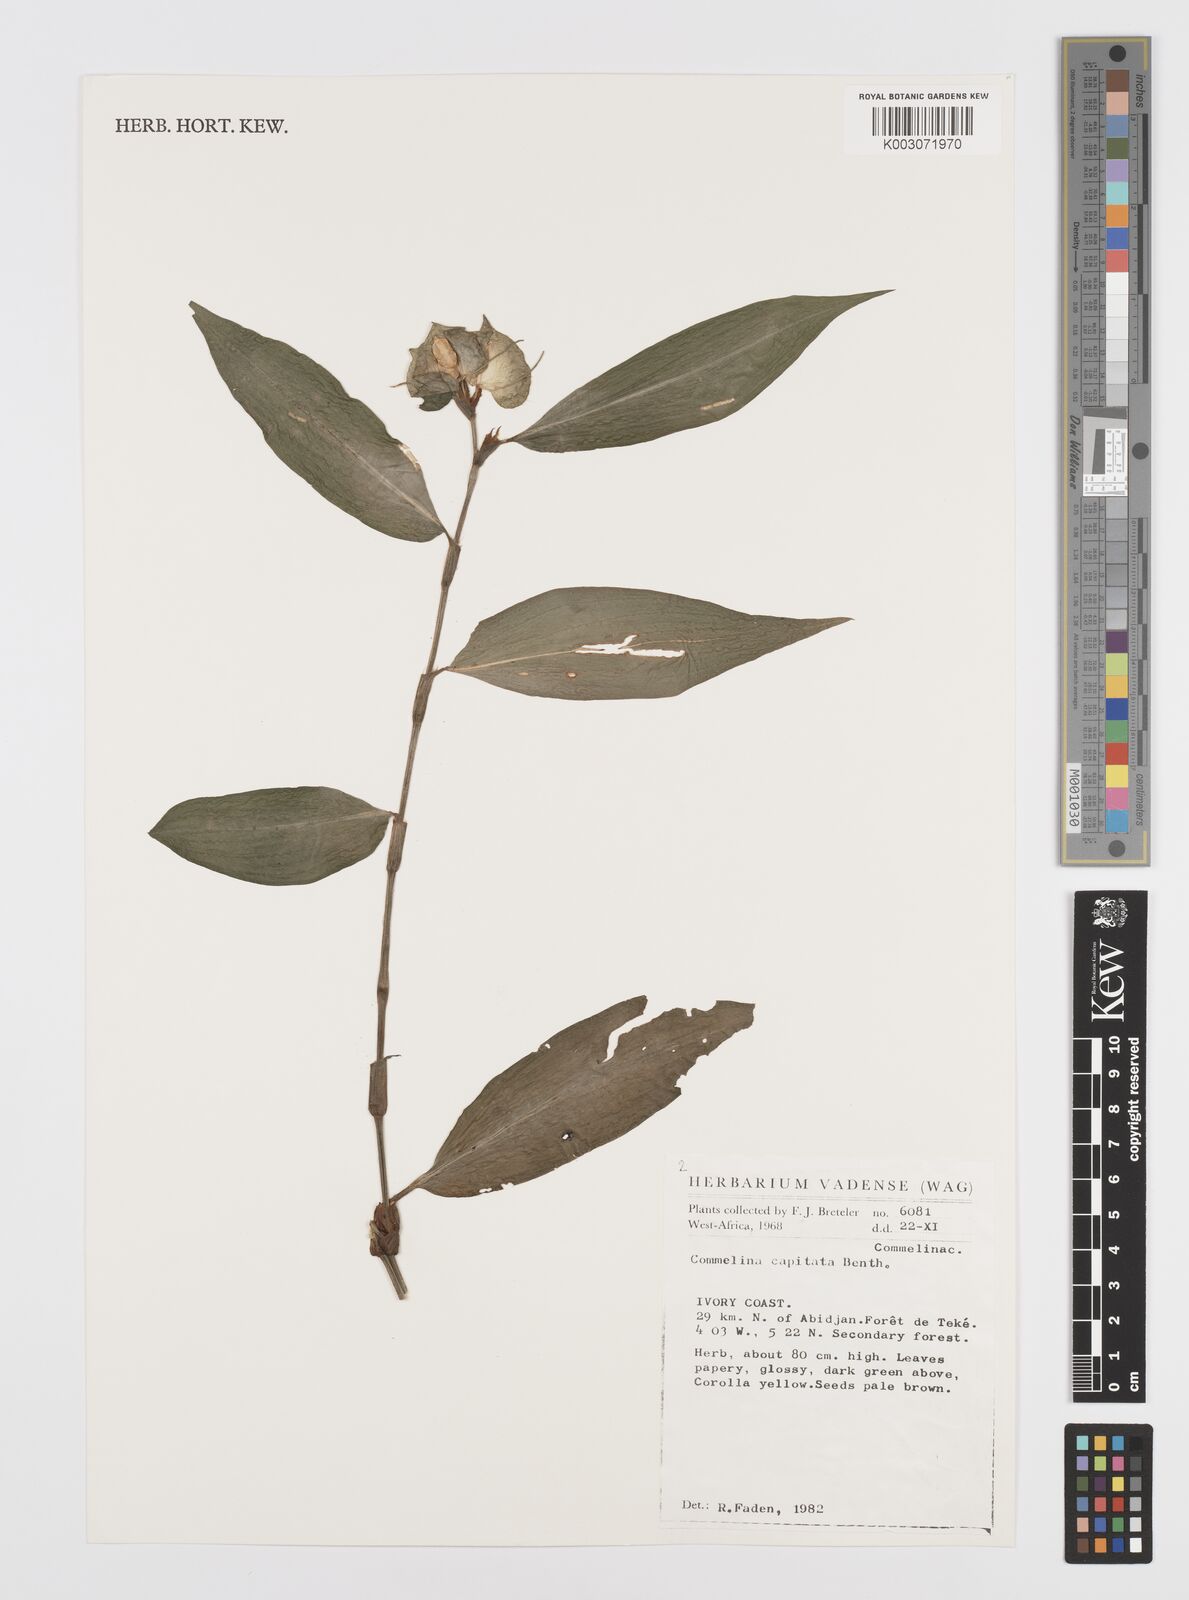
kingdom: Plantae
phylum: Tracheophyta
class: Liliopsida
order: Commelinales
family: Commelinaceae
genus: Commelina
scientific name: Commelina capitata
